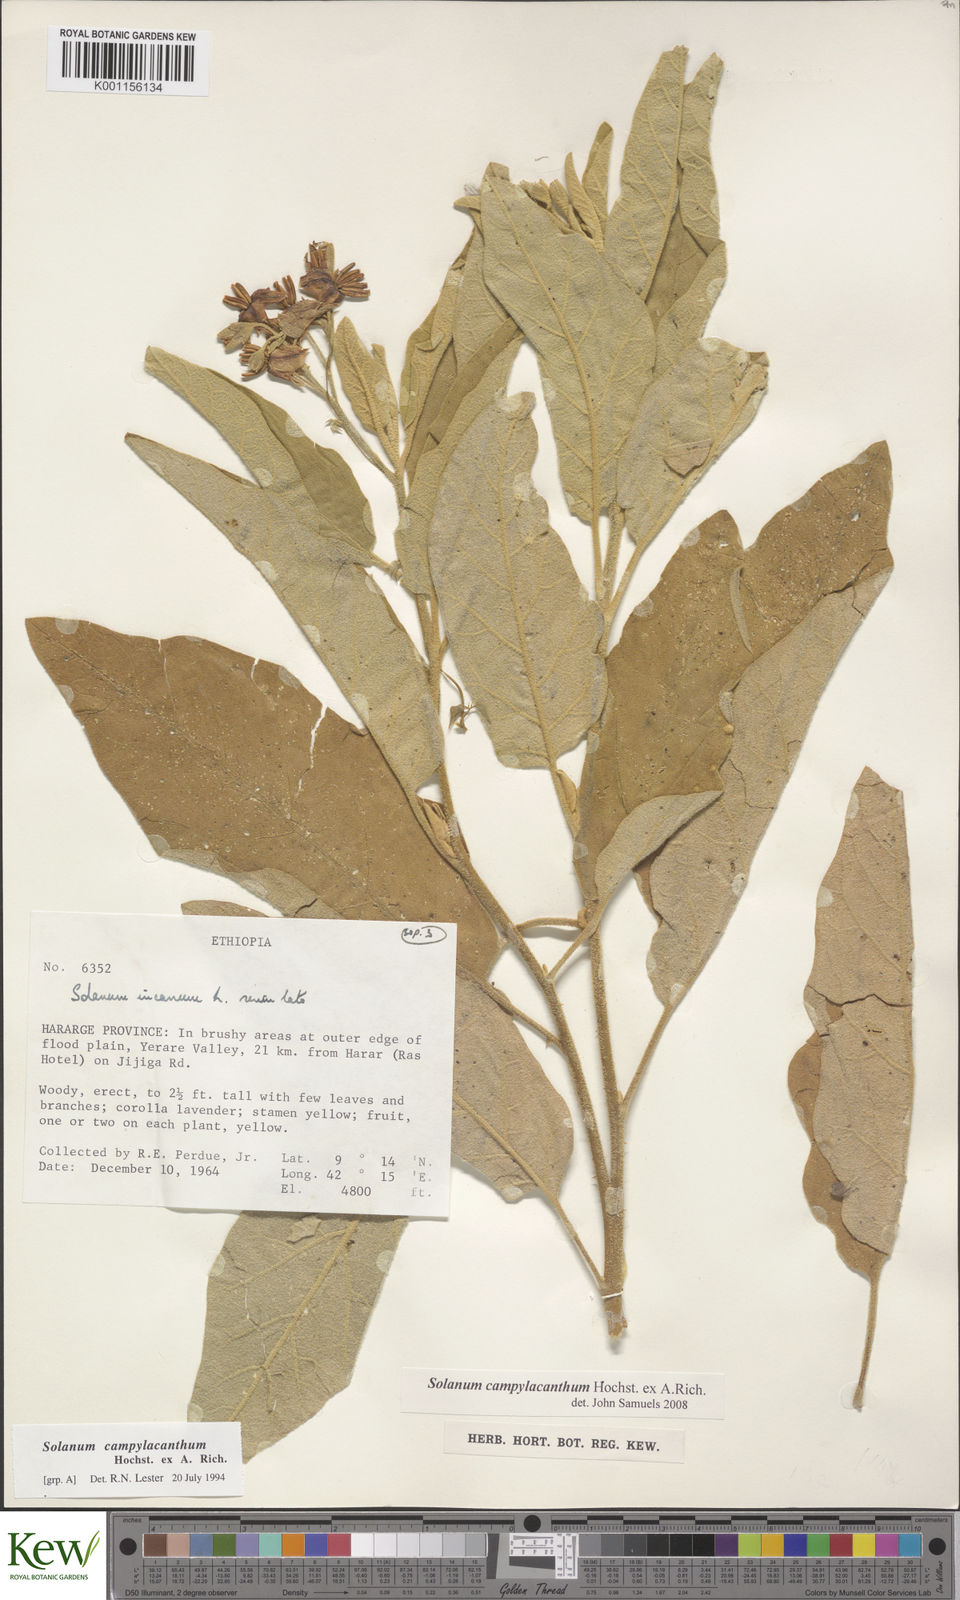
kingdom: Plantae
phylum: Tracheophyta
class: Magnoliopsida
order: Solanales
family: Solanaceae
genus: Solanum
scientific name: Solanum campylacanthum
